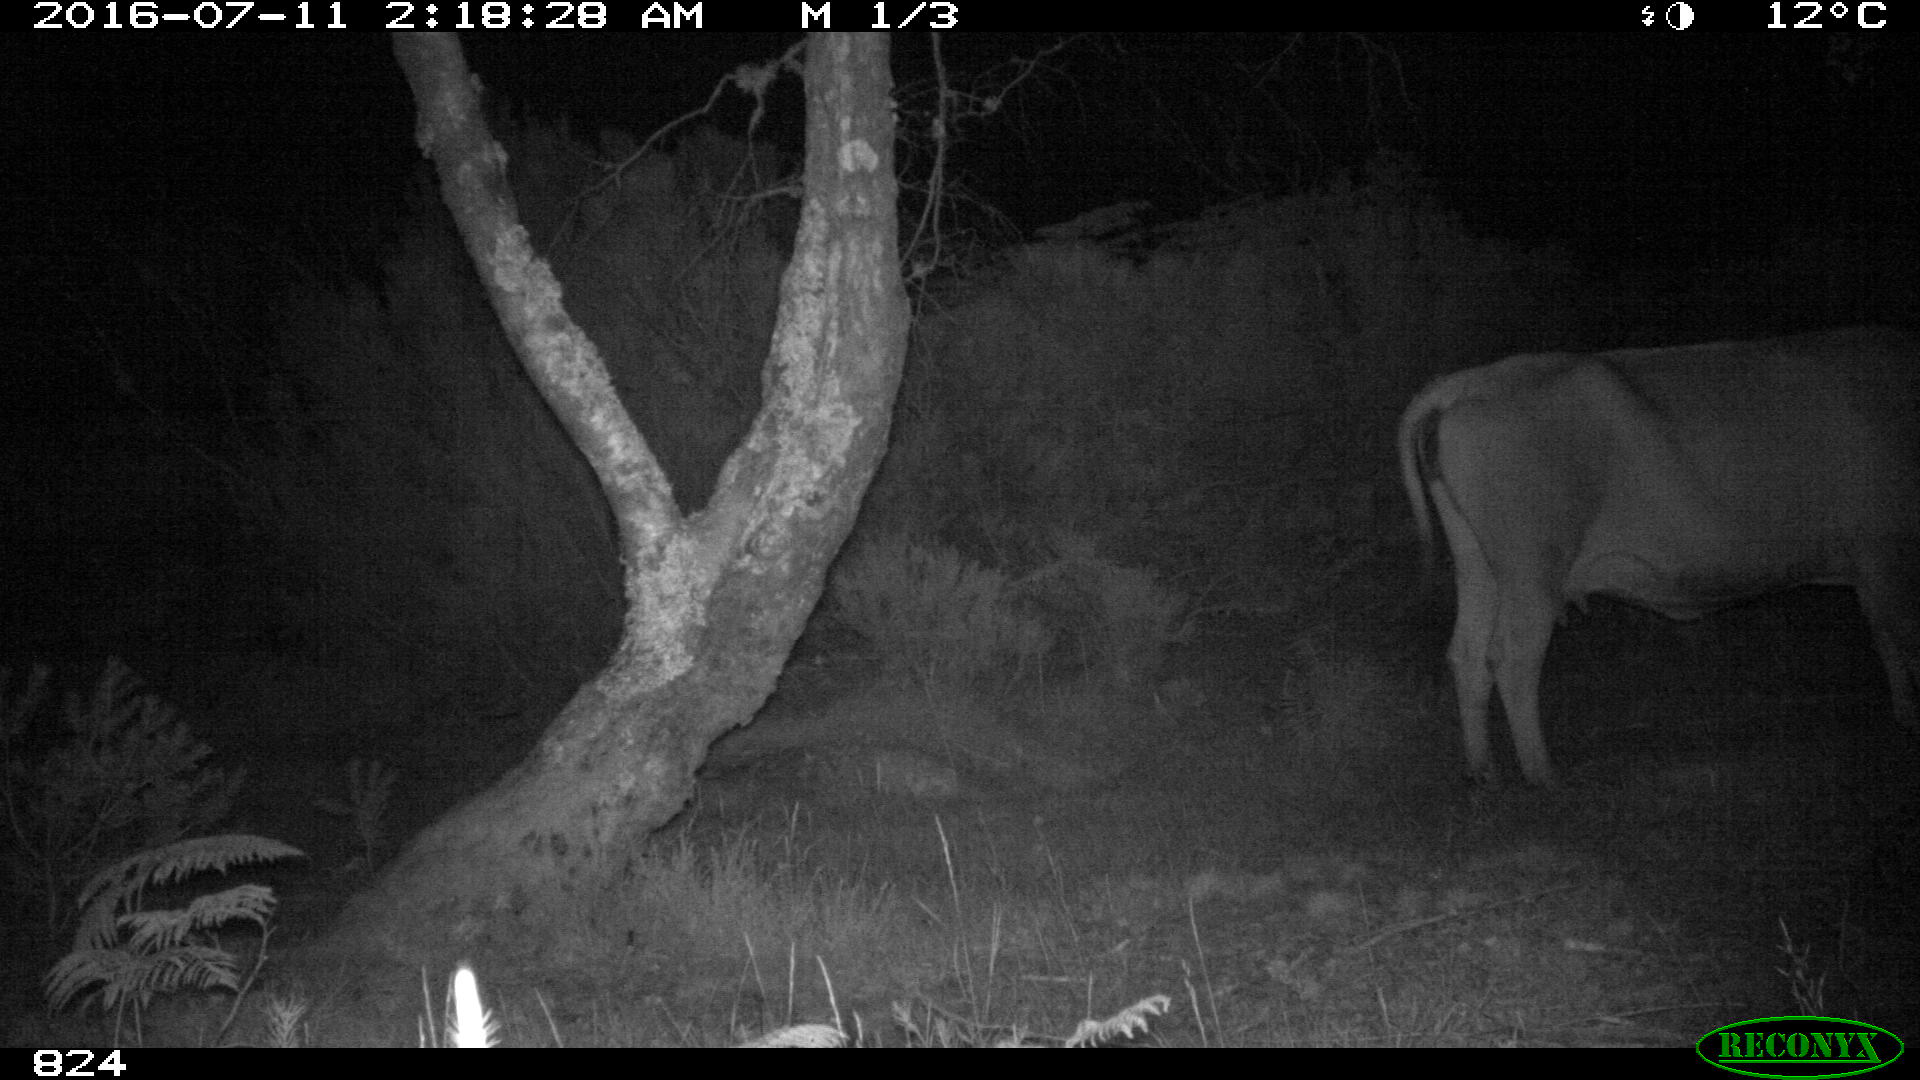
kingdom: Animalia
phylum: Chordata
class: Mammalia
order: Artiodactyla
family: Bovidae
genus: Bos
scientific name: Bos taurus
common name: Domesticated cattle
